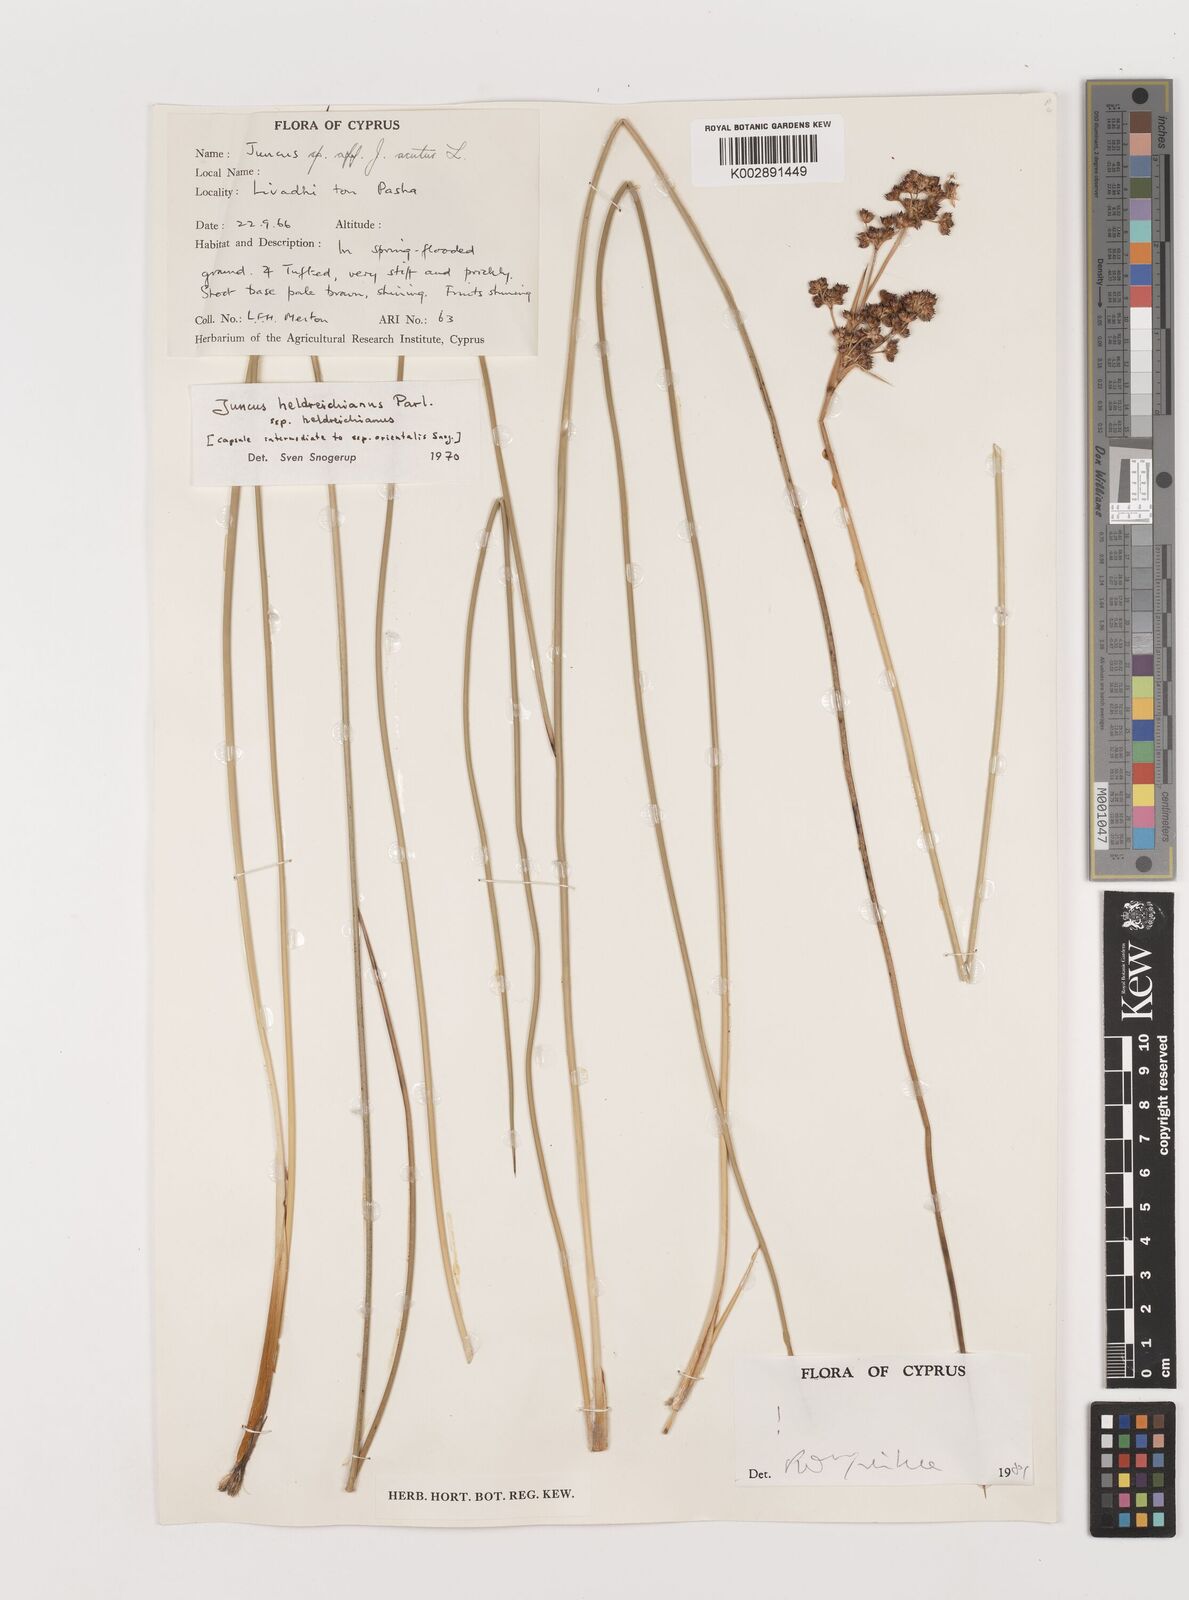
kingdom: Plantae
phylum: Tracheophyta
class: Liliopsida
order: Poales
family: Juncaceae
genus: Juncus
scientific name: Juncus heldreichianus
